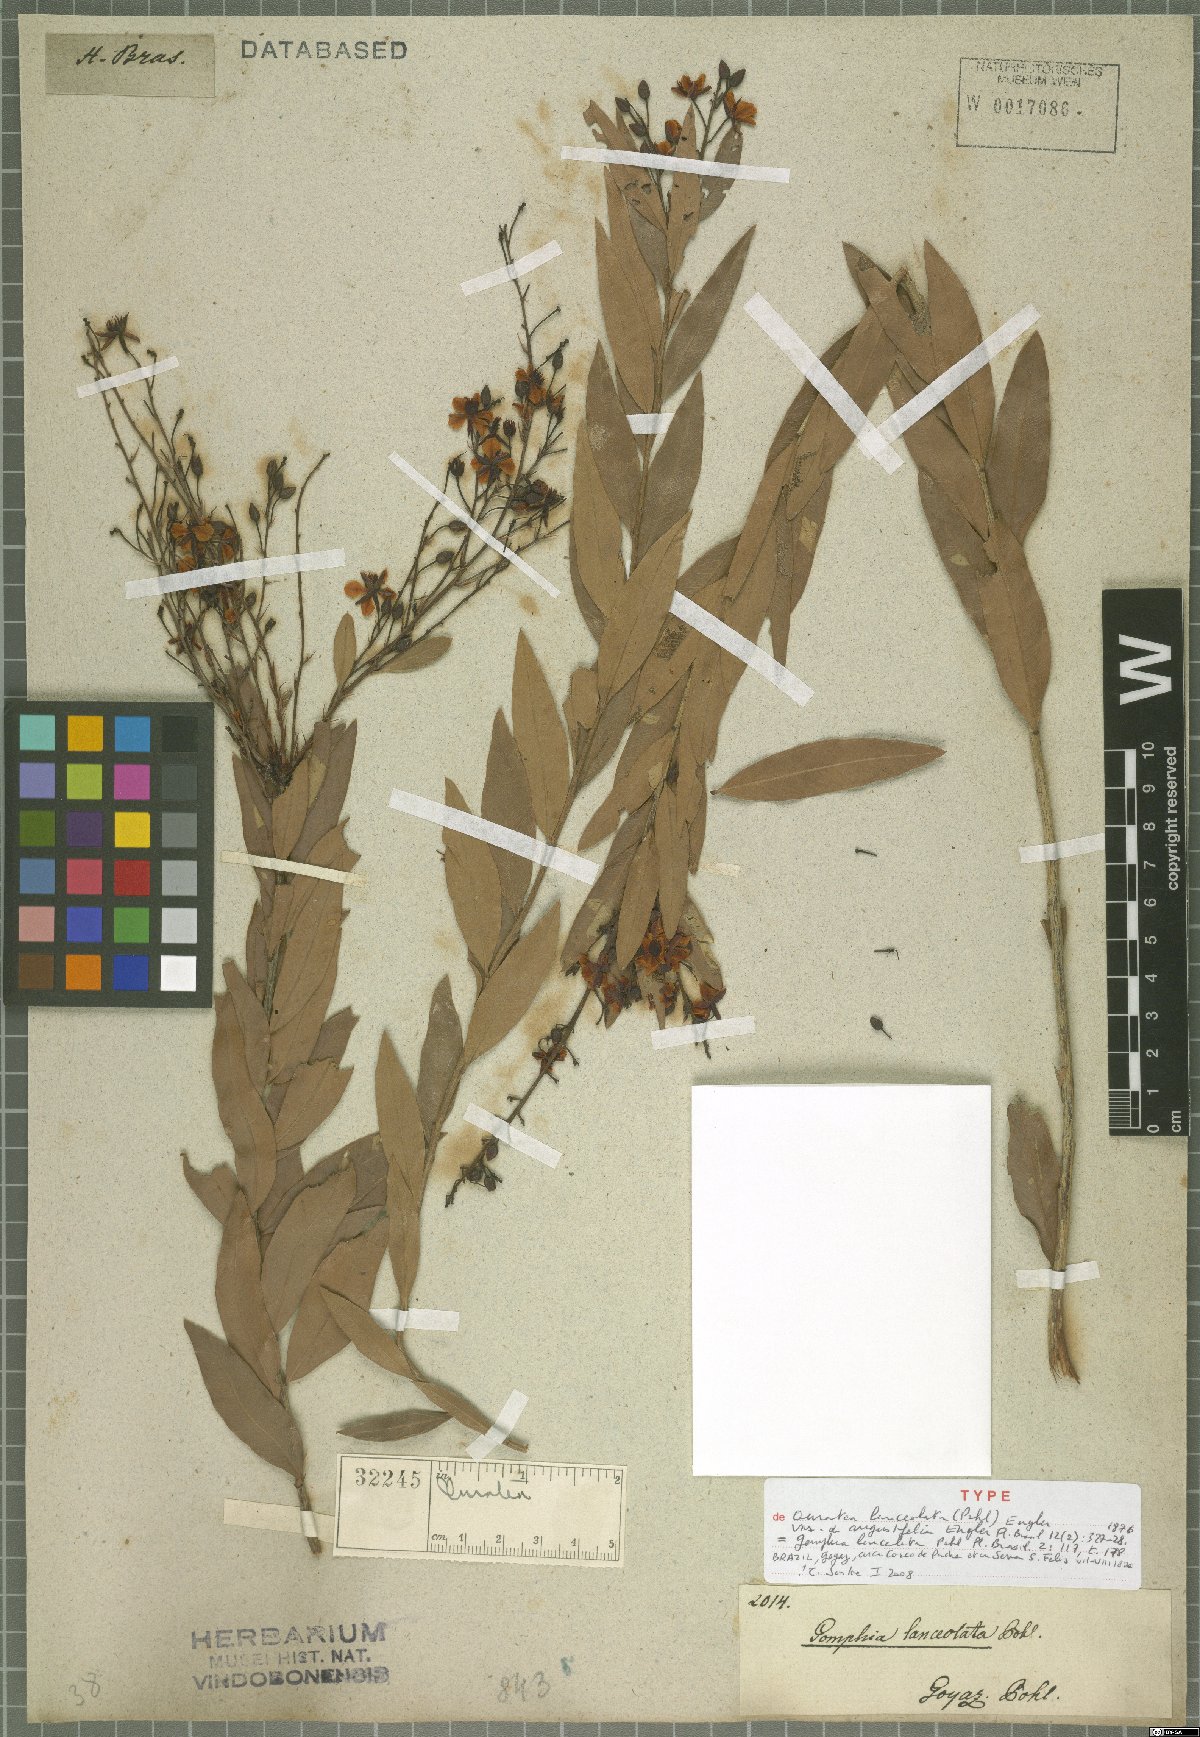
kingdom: Plantae
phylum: Tracheophyta
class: Magnoliopsida
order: Malpighiales
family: Ochnaceae
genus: Ouratea
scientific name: Ouratea lanceolata
